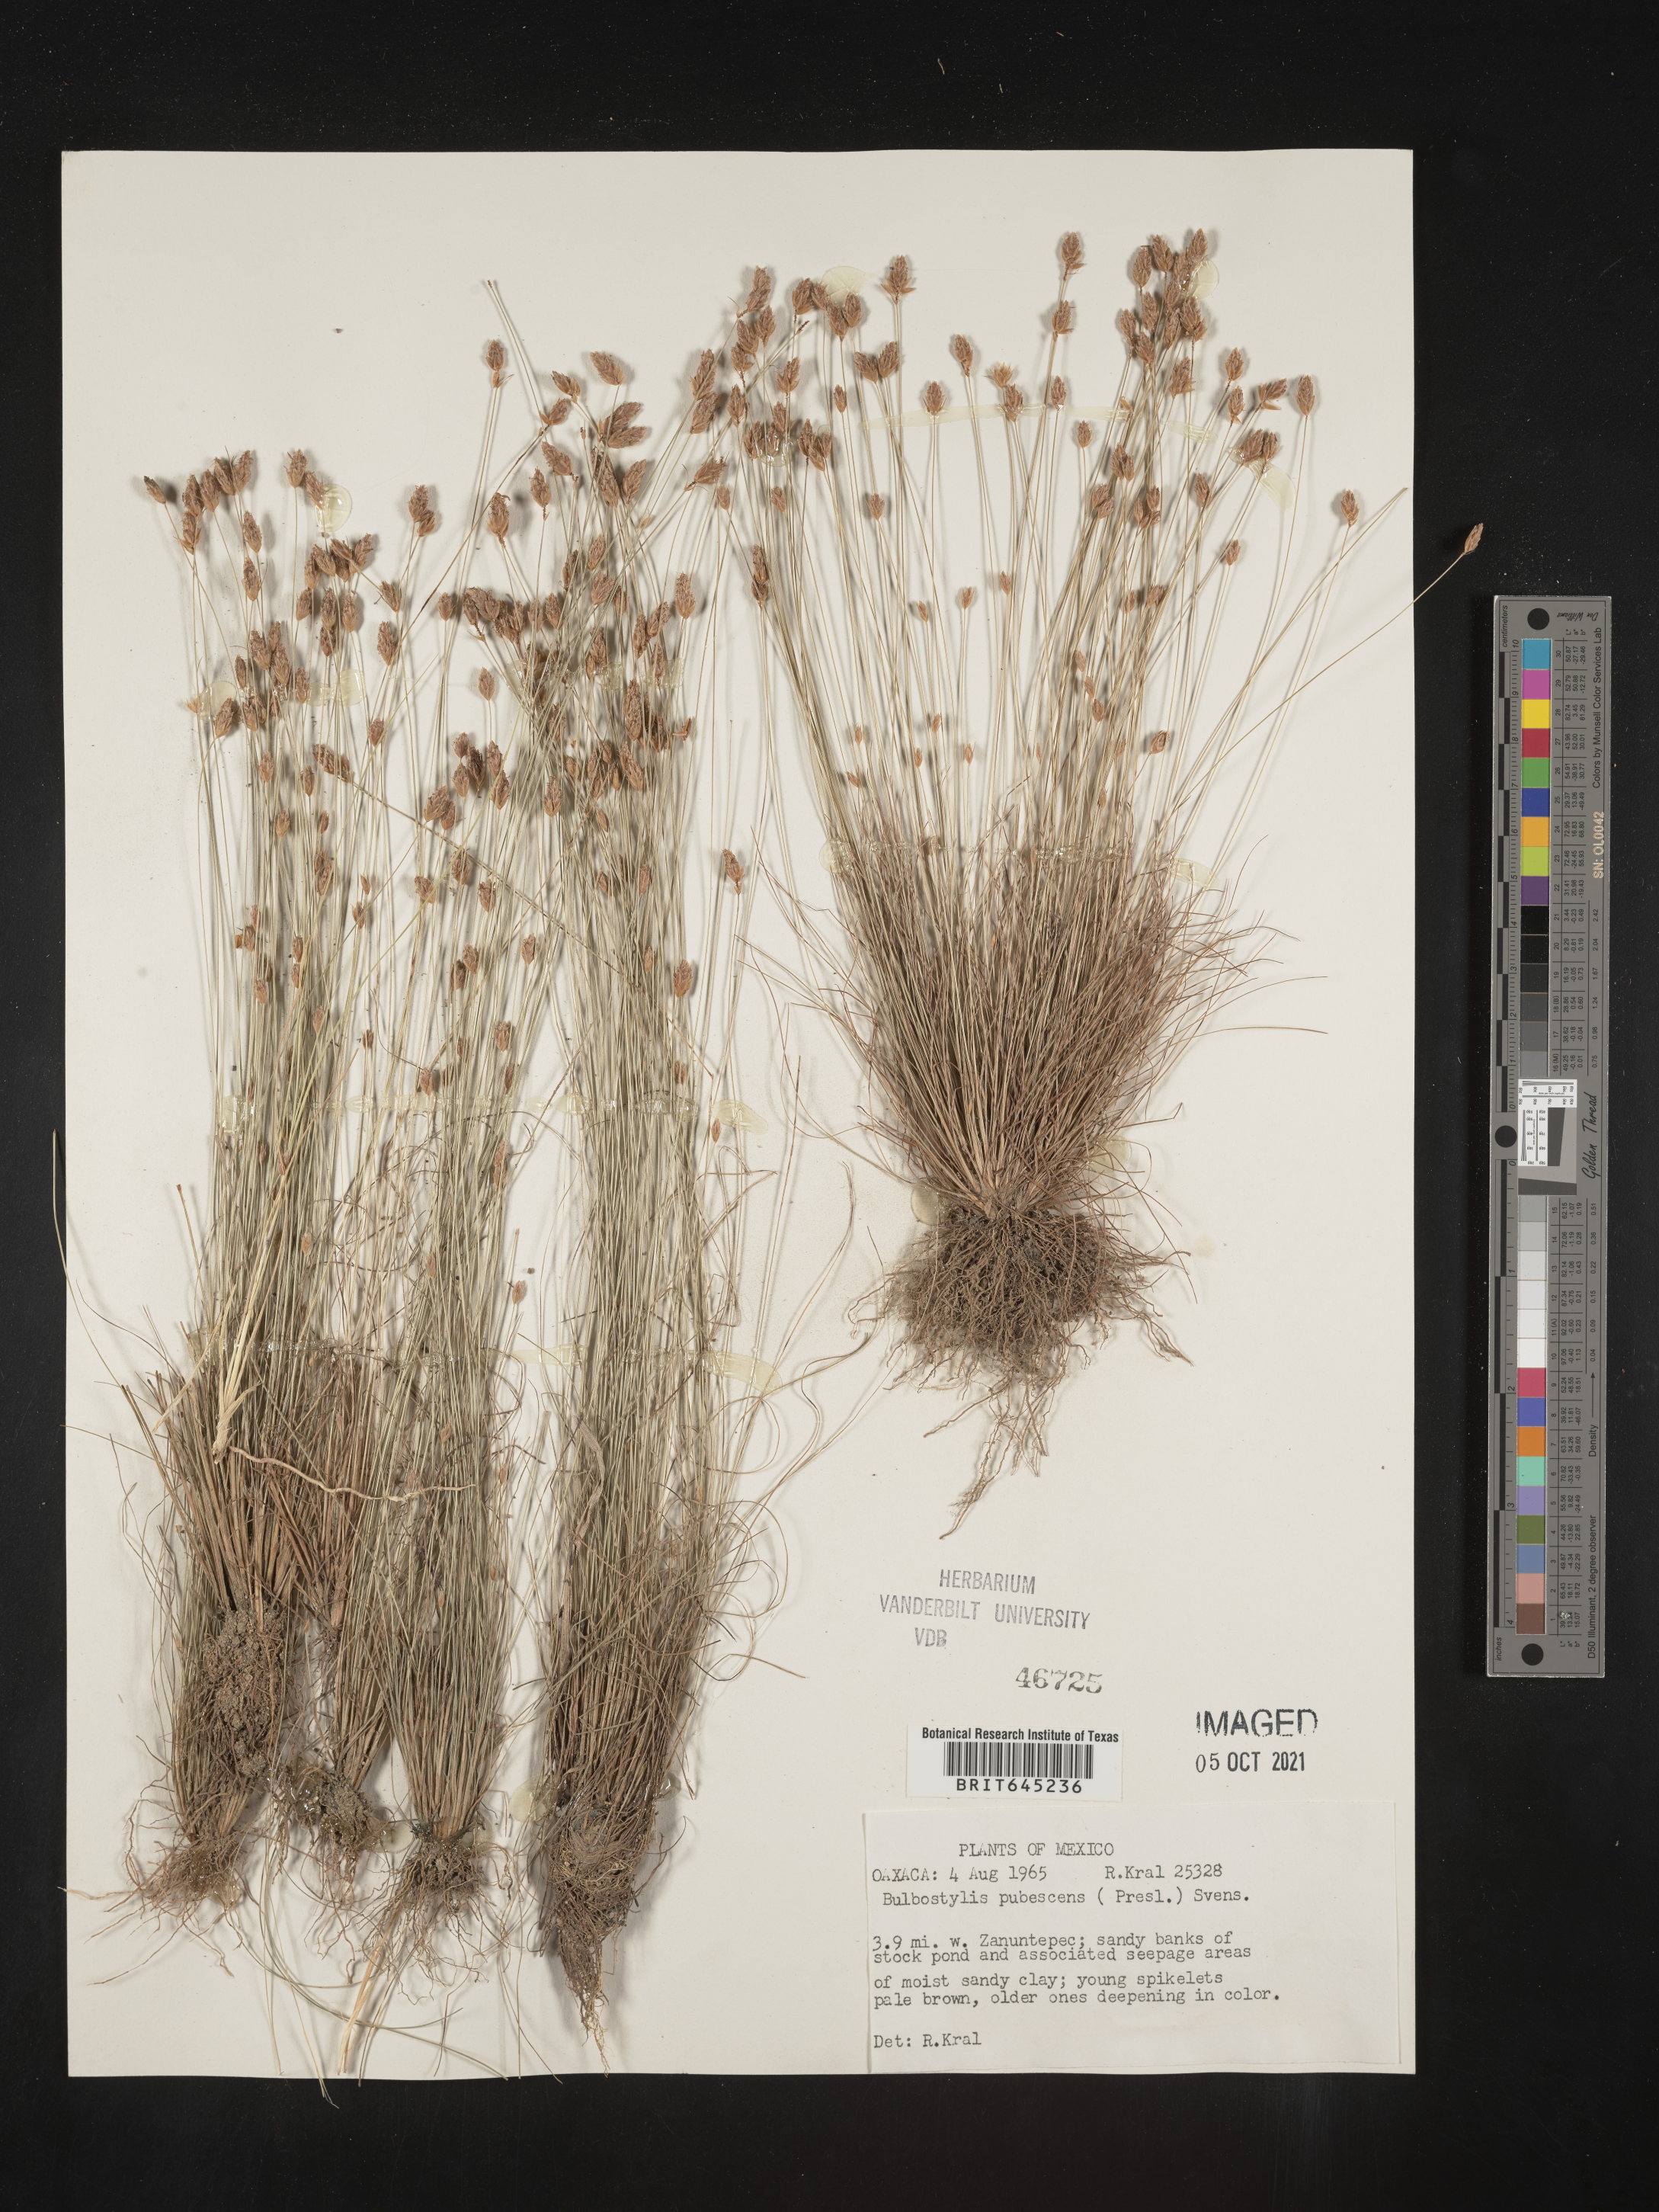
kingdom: Plantae
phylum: Tracheophyta
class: Liliopsida
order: Poales
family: Cyperaceae
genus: Bulbostylis
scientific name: Bulbostylis pubescens
